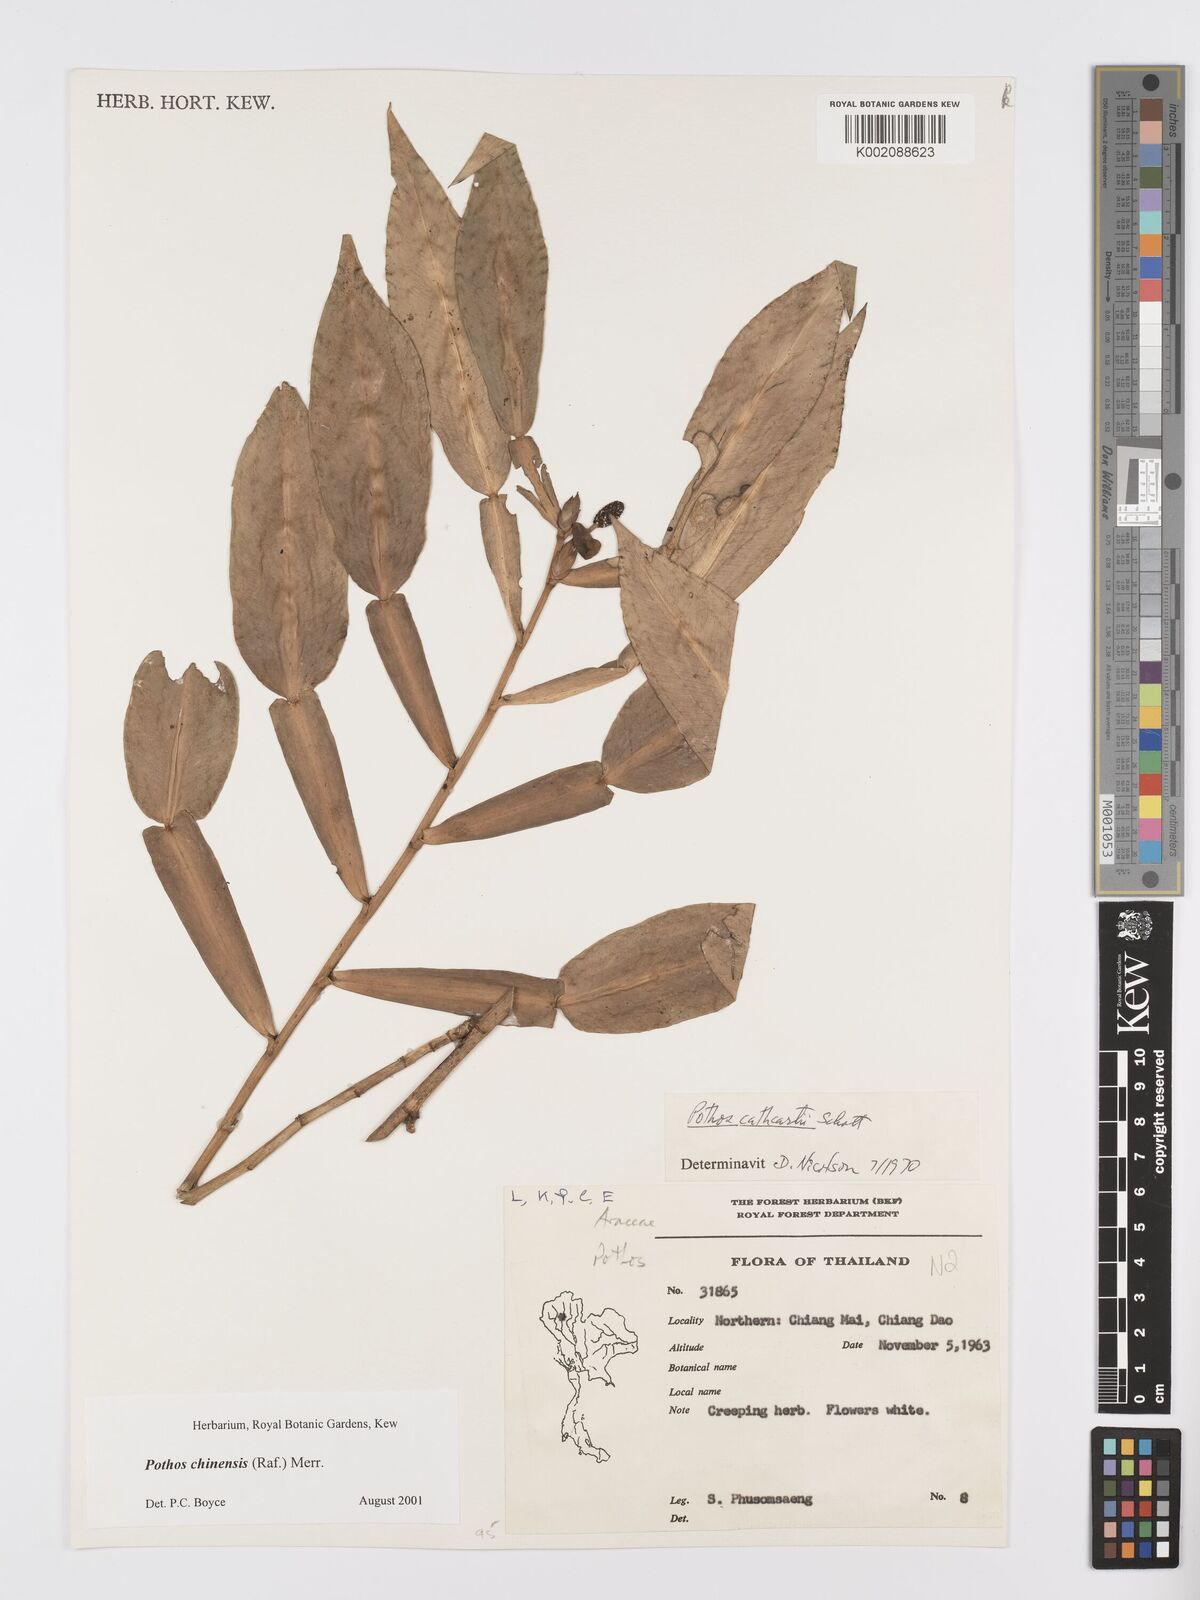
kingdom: Plantae
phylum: Tracheophyta
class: Liliopsida
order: Alismatales
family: Araceae
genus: Pothos
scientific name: Pothos chinensis
